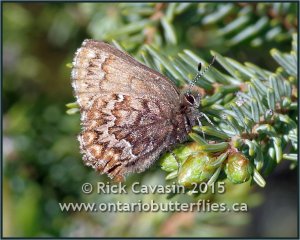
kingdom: Animalia
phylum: Arthropoda
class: Insecta
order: Lepidoptera
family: Lycaenidae
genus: Incisalia
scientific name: Incisalia eryphon
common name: Western Pine Elfin
